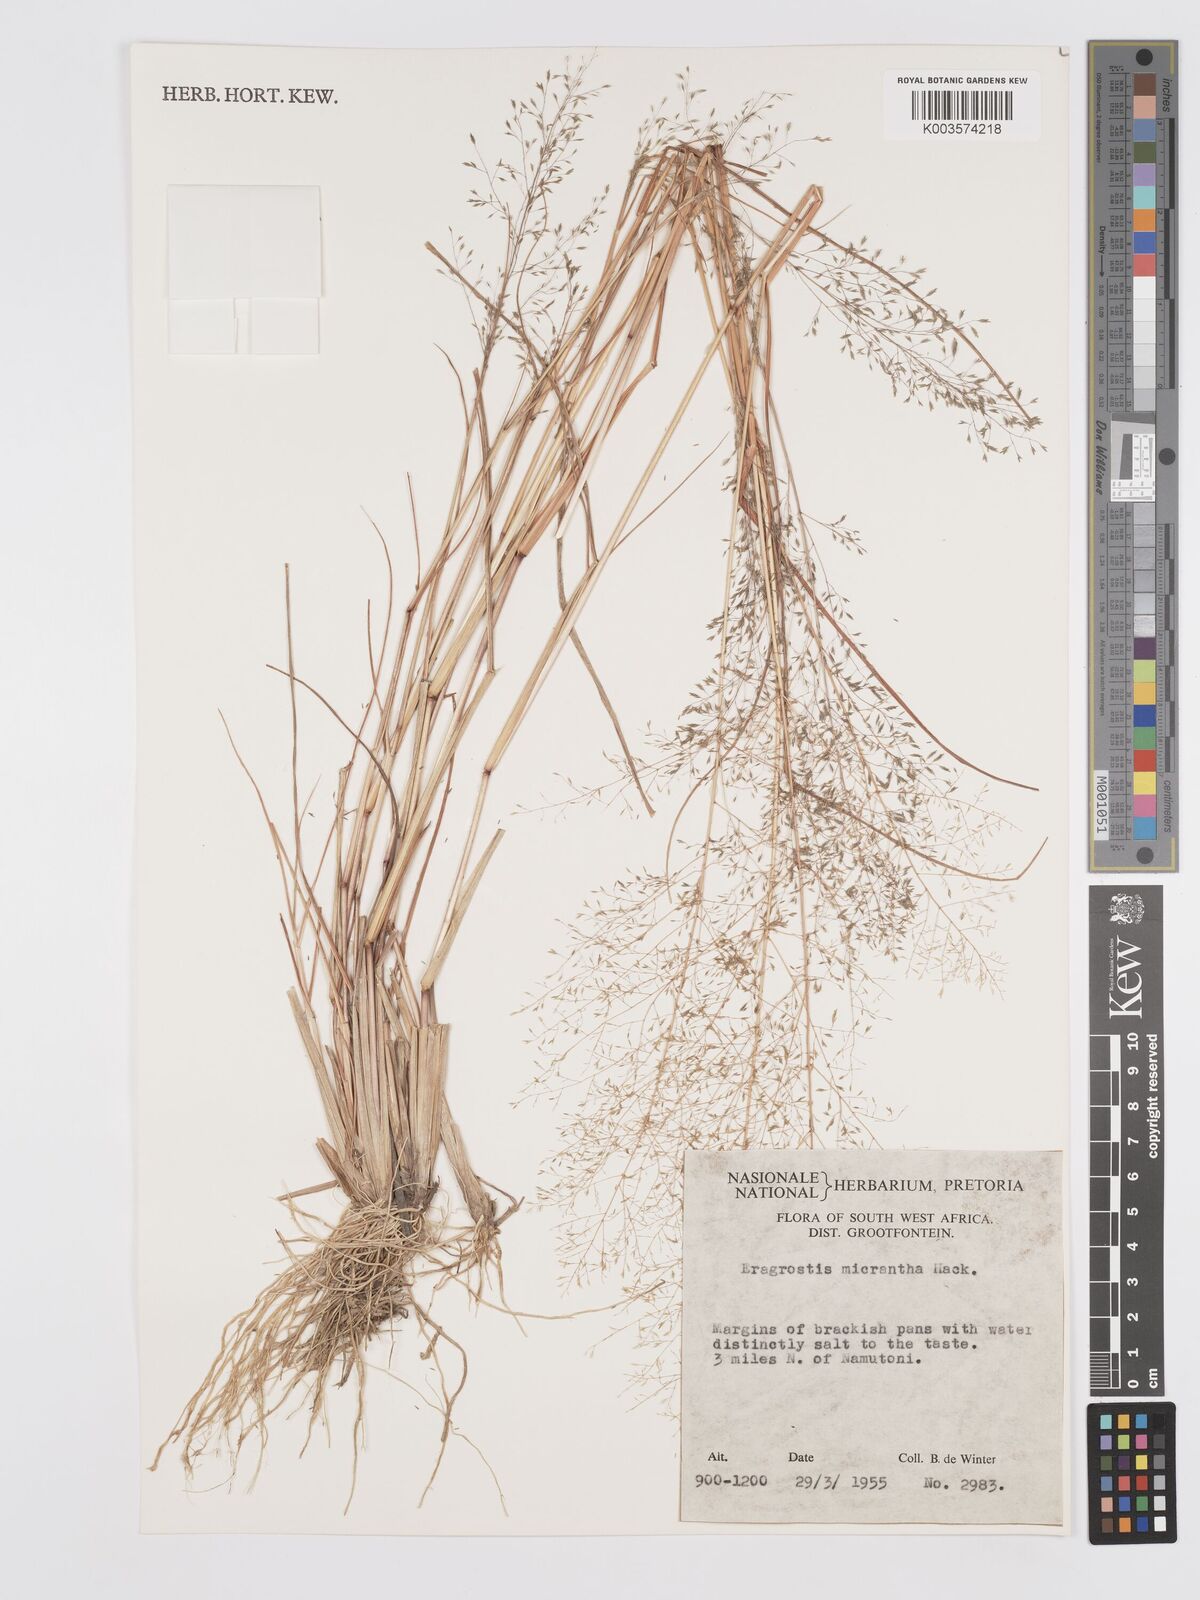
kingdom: Plantae
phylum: Tracheophyta
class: Liliopsida
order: Poales
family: Poaceae
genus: Eragrostis
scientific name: Eragrostis micrantha
